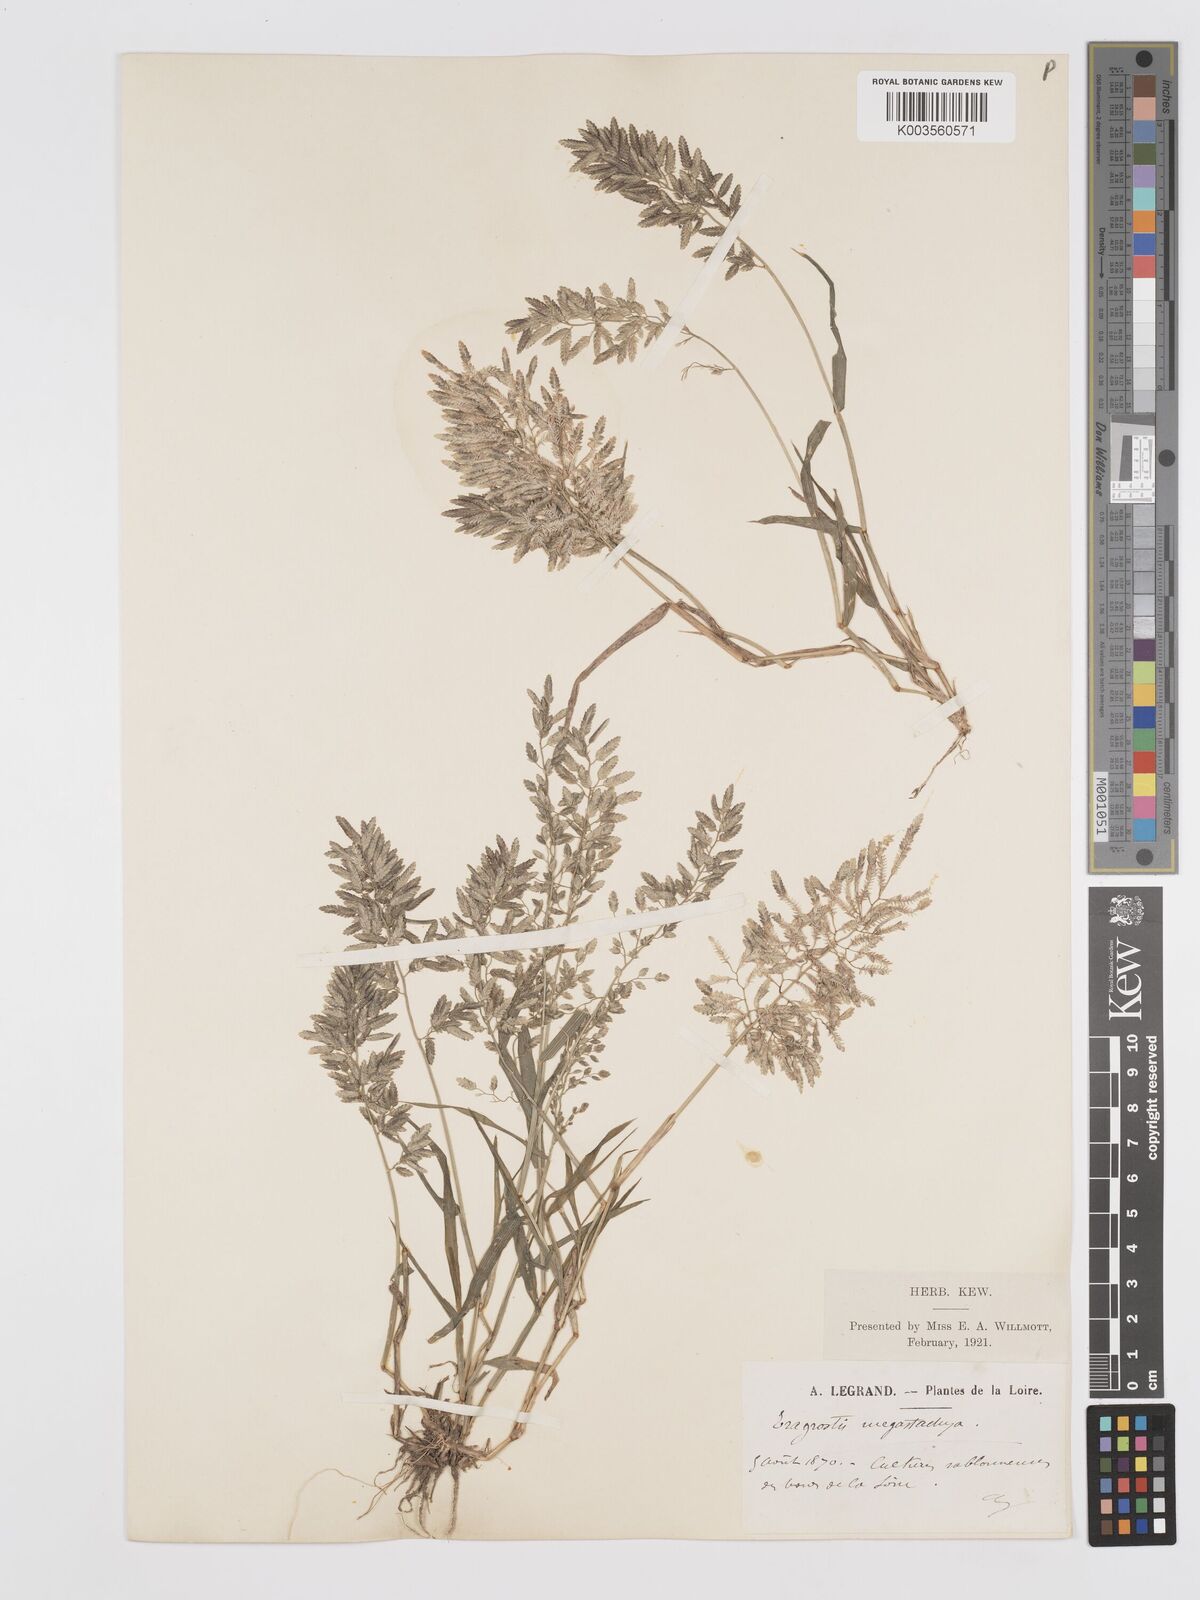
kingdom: Plantae
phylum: Tracheophyta
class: Liliopsida
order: Poales
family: Poaceae
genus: Eragrostis
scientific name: Eragrostis cilianensis
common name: Stinkgrass
